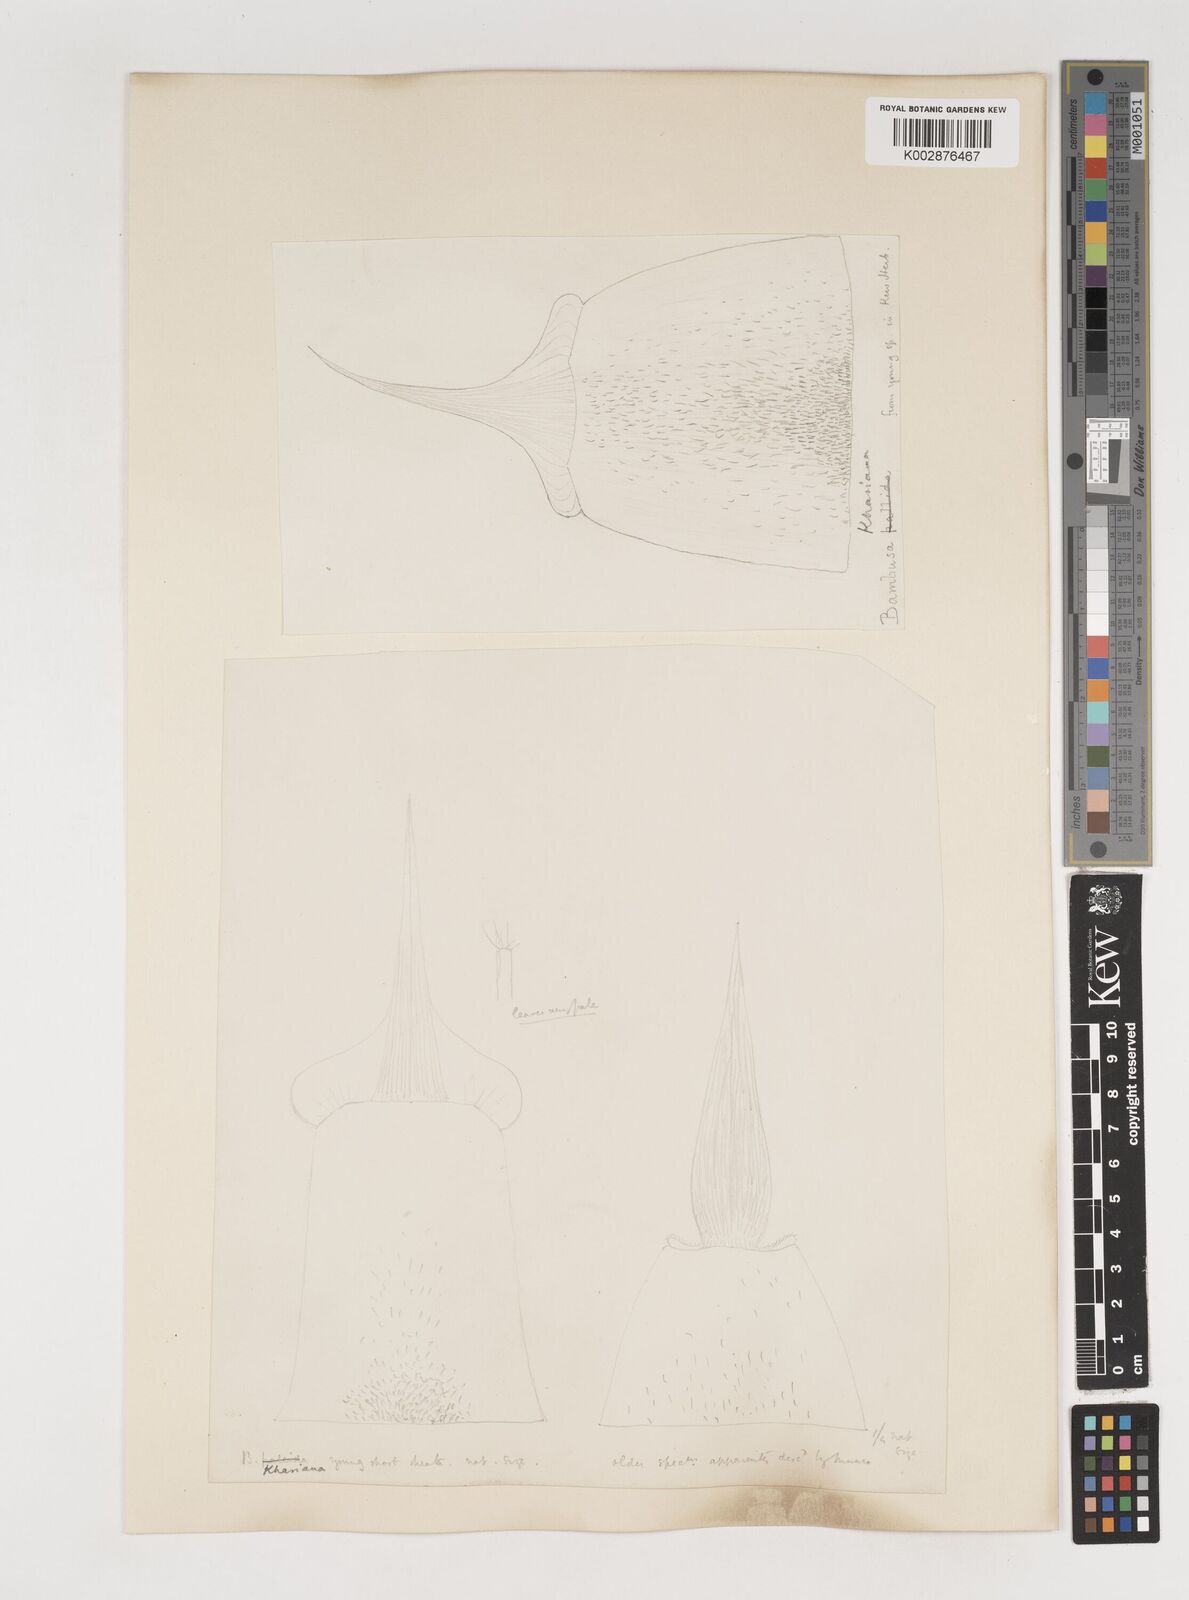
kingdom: Plantae
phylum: Tracheophyta
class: Liliopsida
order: Poales
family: Poaceae
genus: Bambusa
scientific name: Bambusa khasiana
